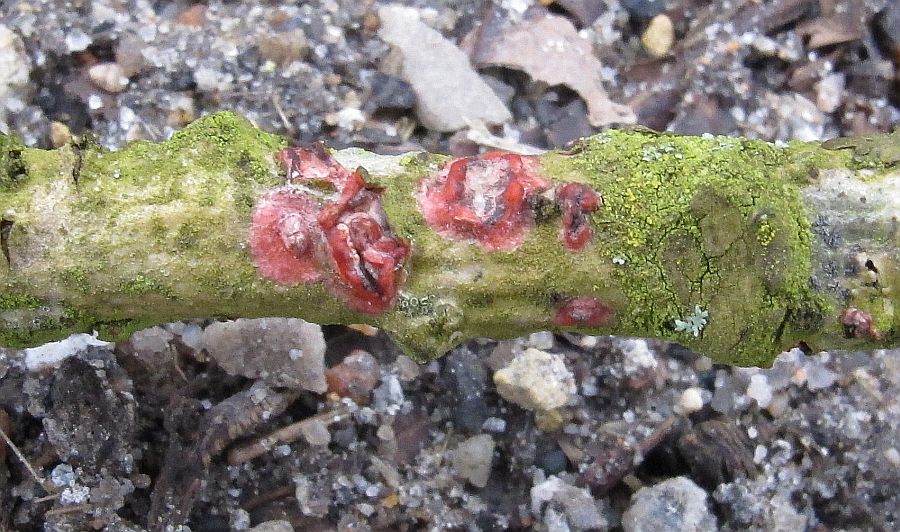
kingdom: Fungi
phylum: Basidiomycota
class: Agaricomycetes
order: Corticiales
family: Corticiaceae
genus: Marchandiomyces
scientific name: Marchandiomyces aurantioroseus
